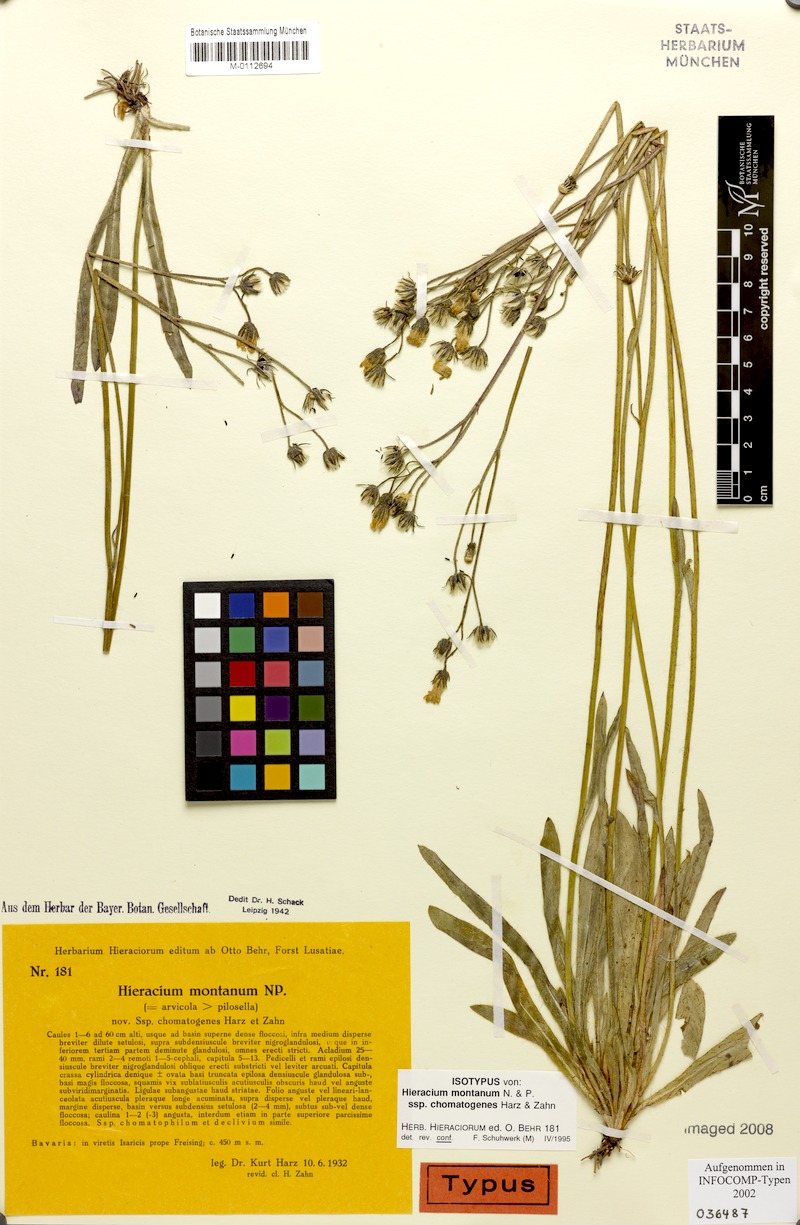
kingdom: Plantae
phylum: Tracheophyta
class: Magnoliopsida
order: Asterales
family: Asteraceae
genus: Pilosella
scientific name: Pilosella chomatophila
